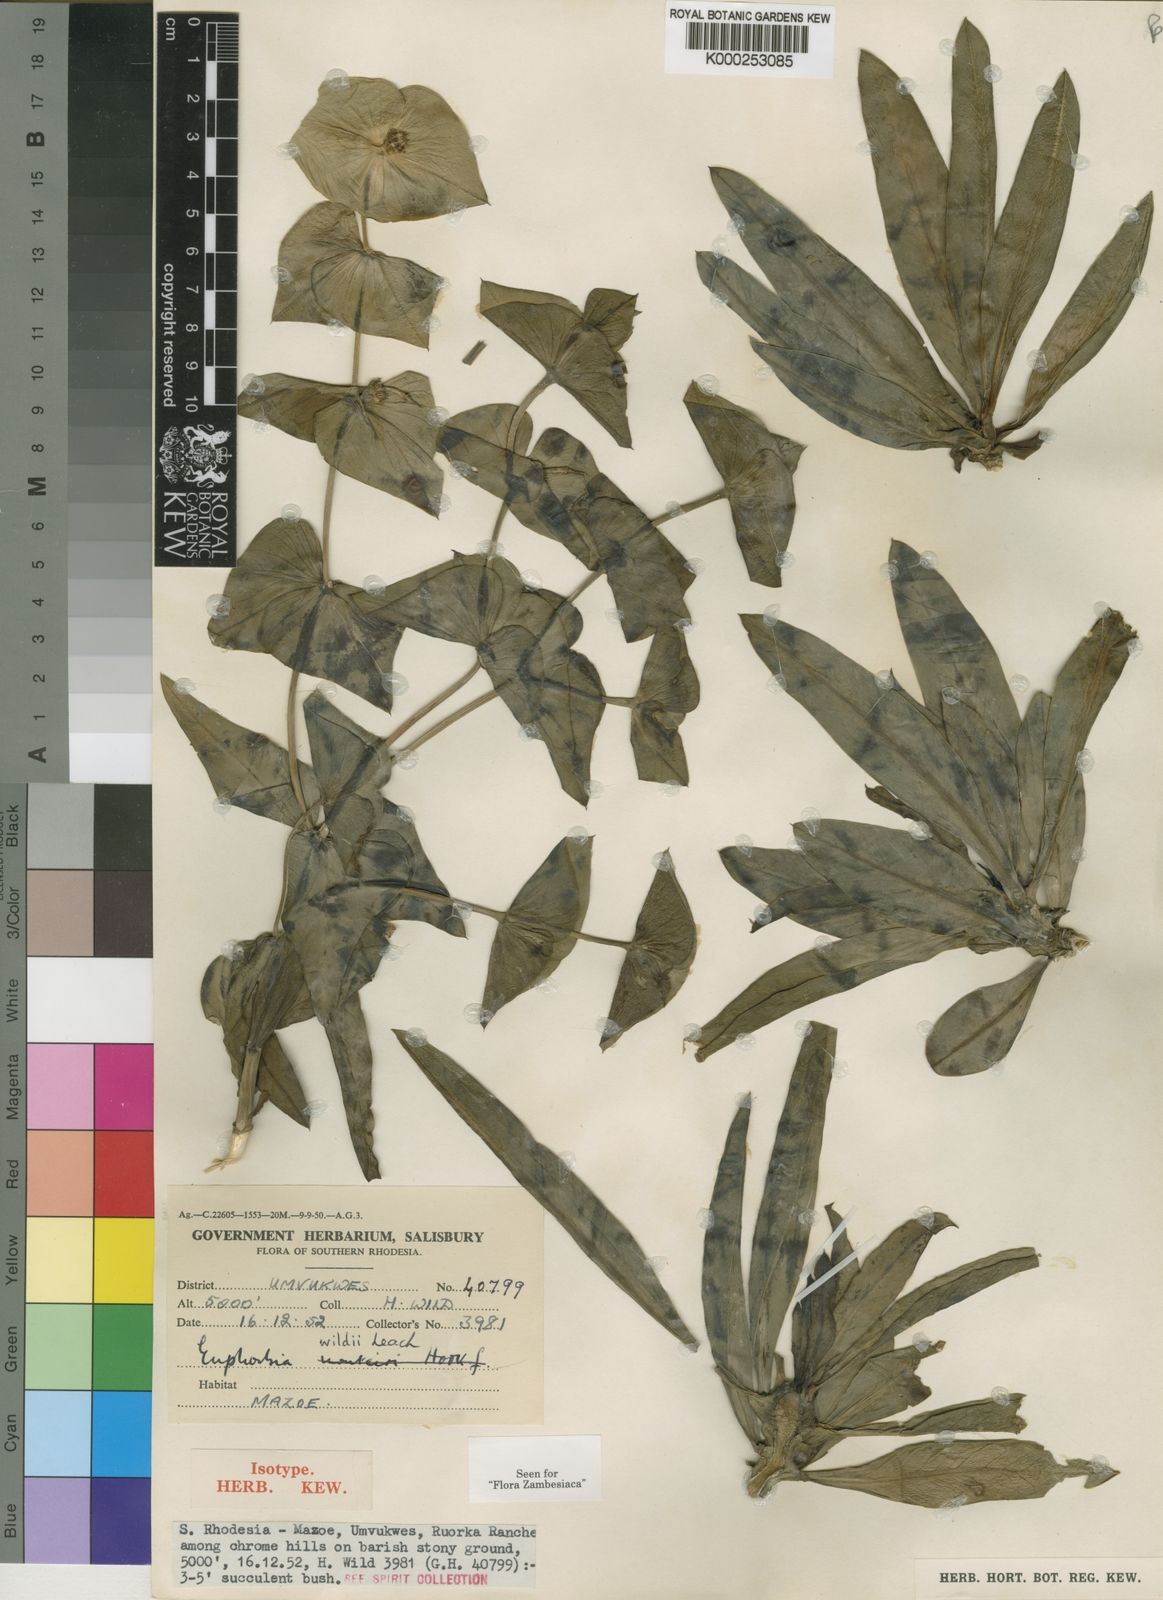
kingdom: Plantae
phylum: Tracheophyta
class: Magnoliopsida
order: Malpighiales
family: Euphorbiaceae
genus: Euphorbia
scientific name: Euphorbia wildii
